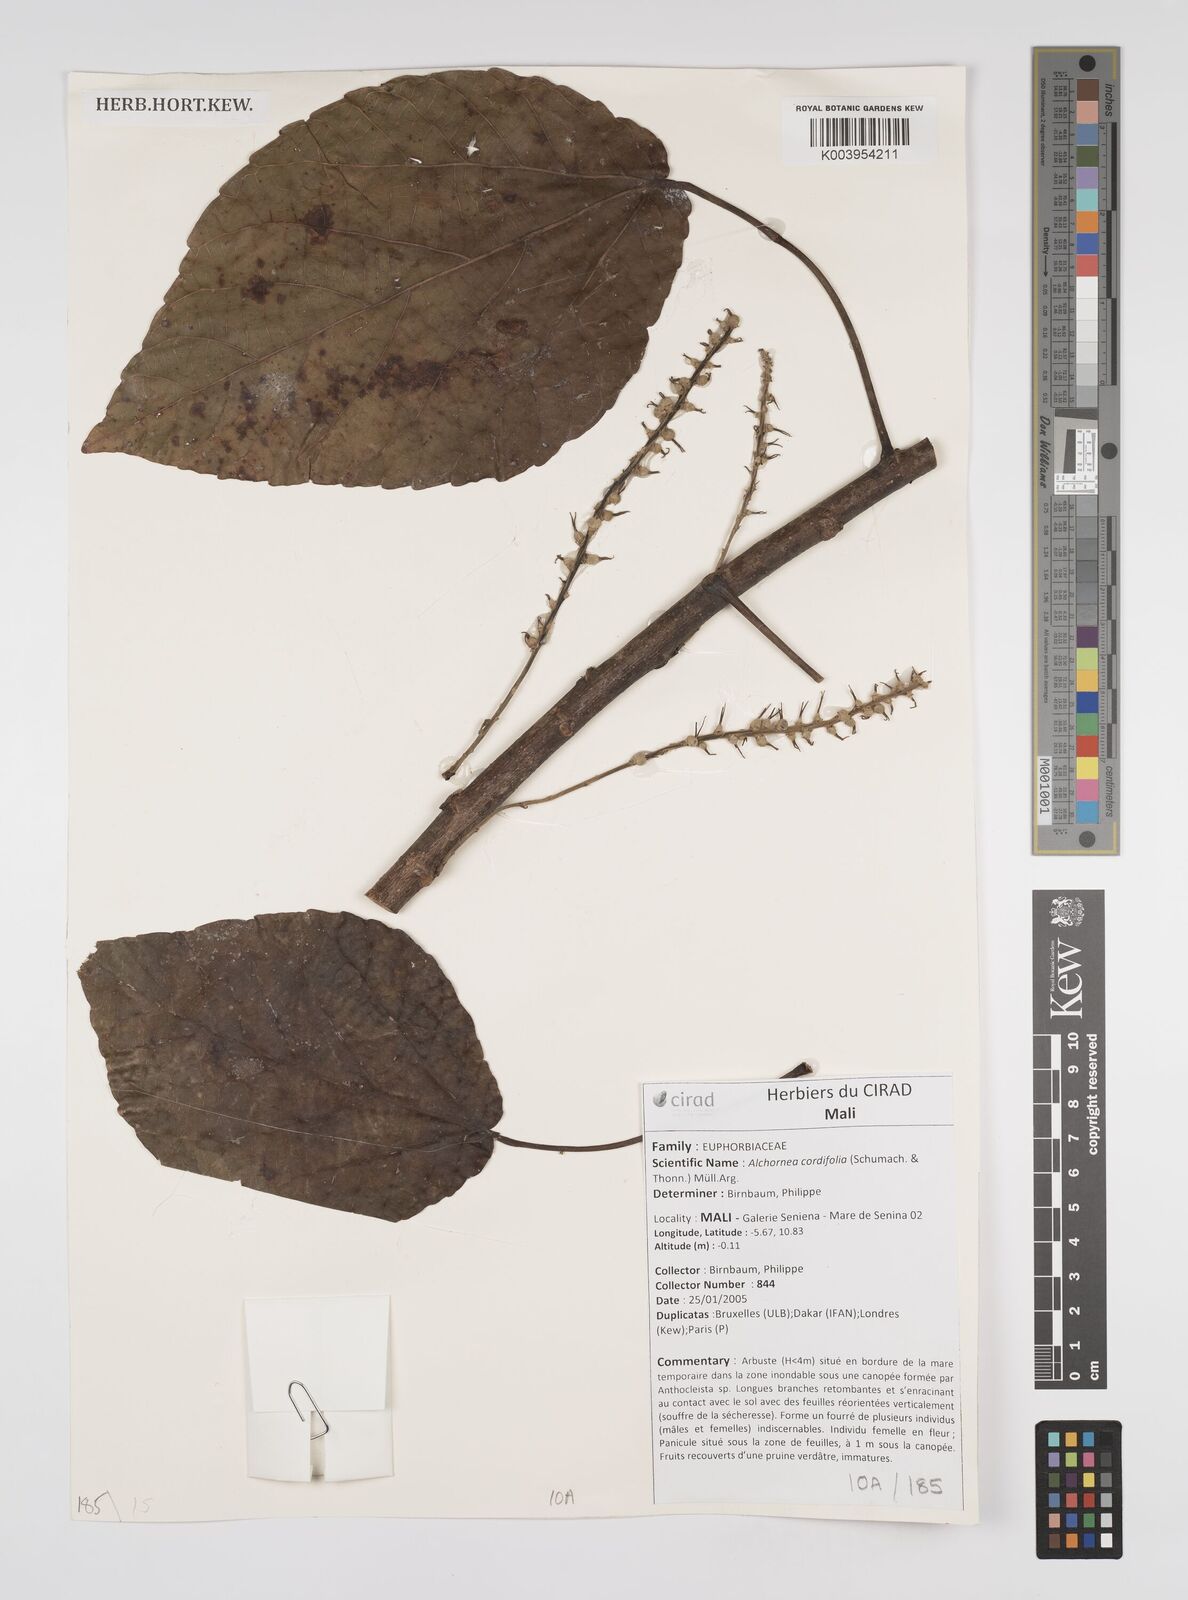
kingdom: Plantae
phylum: Tracheophyta
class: Magnoliopsida
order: Malpighiales
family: Euphorbiaceae
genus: Alchornea
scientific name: Alchornea cordifolia
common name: Christmasbush
